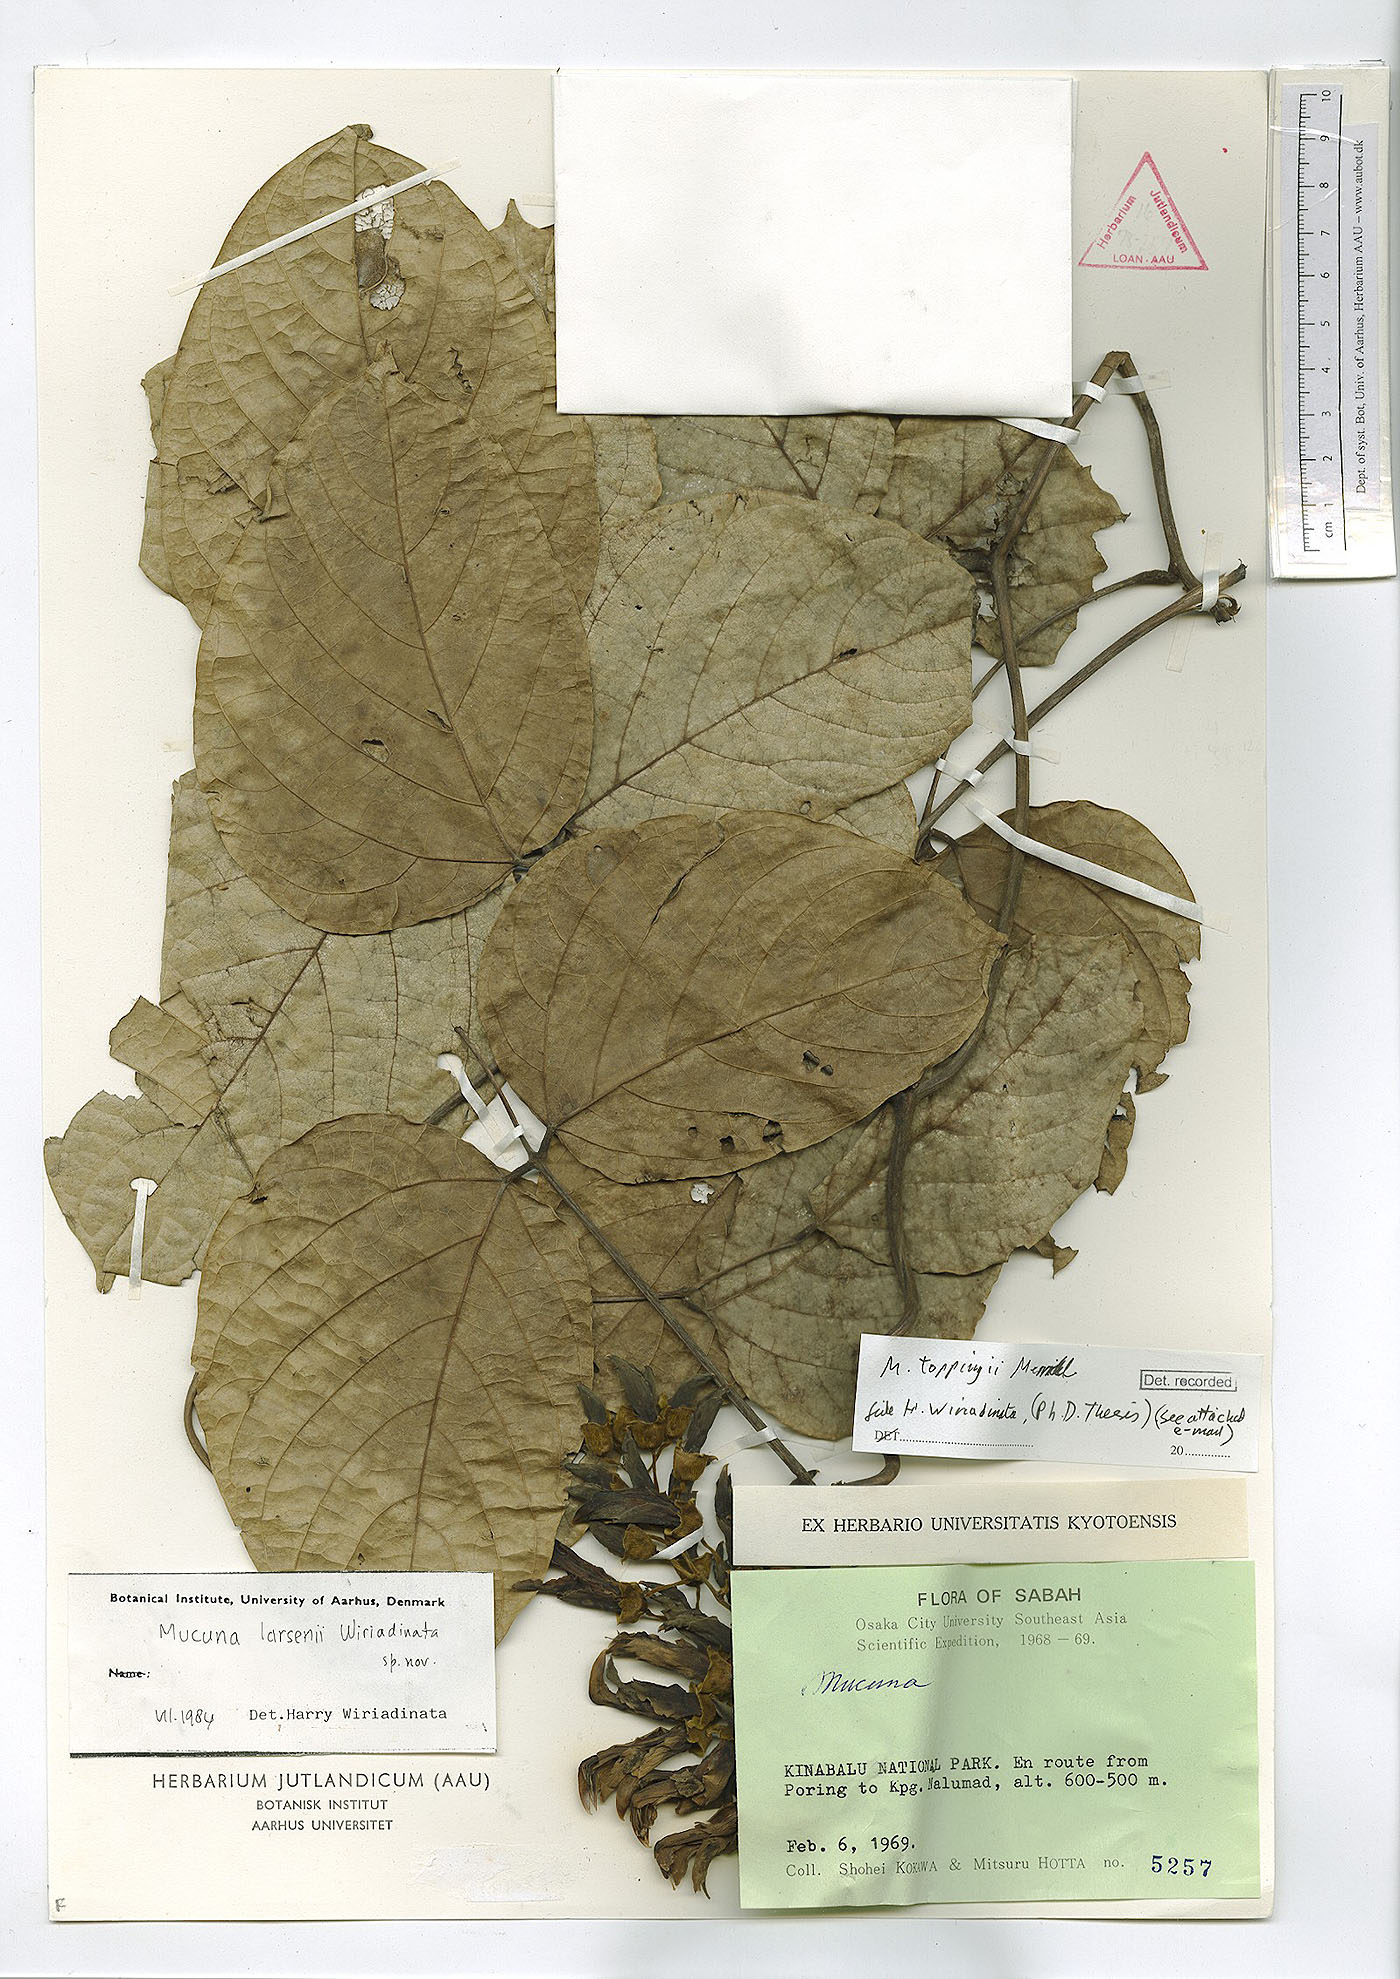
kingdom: Plantae
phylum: Tracheophyta
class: Magnoliopsida
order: Fabales
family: Fabaceae
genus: Mucuna
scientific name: Mucuna toppingii
